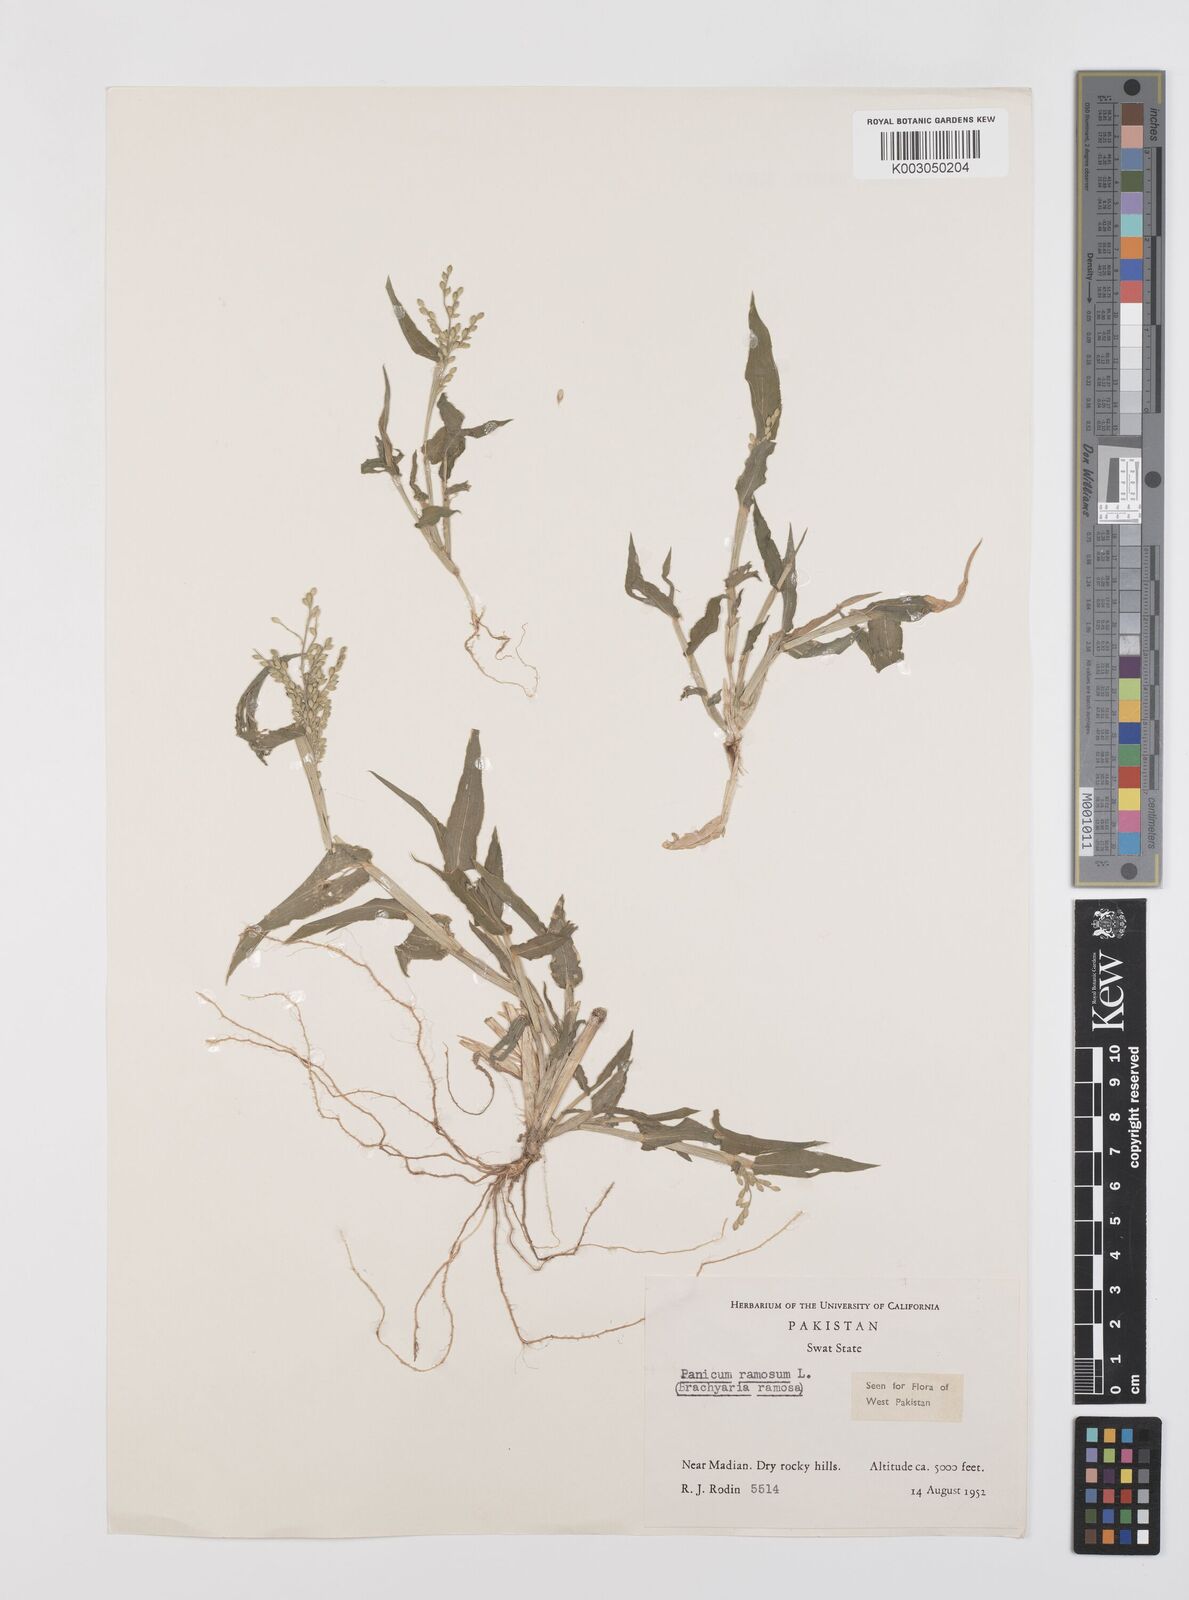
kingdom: Plantae
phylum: Tracheophyta
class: Liliopsida
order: Poales
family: Poaceae
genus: Urochloa
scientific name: Urochloa ramosa
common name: Browntop millet
